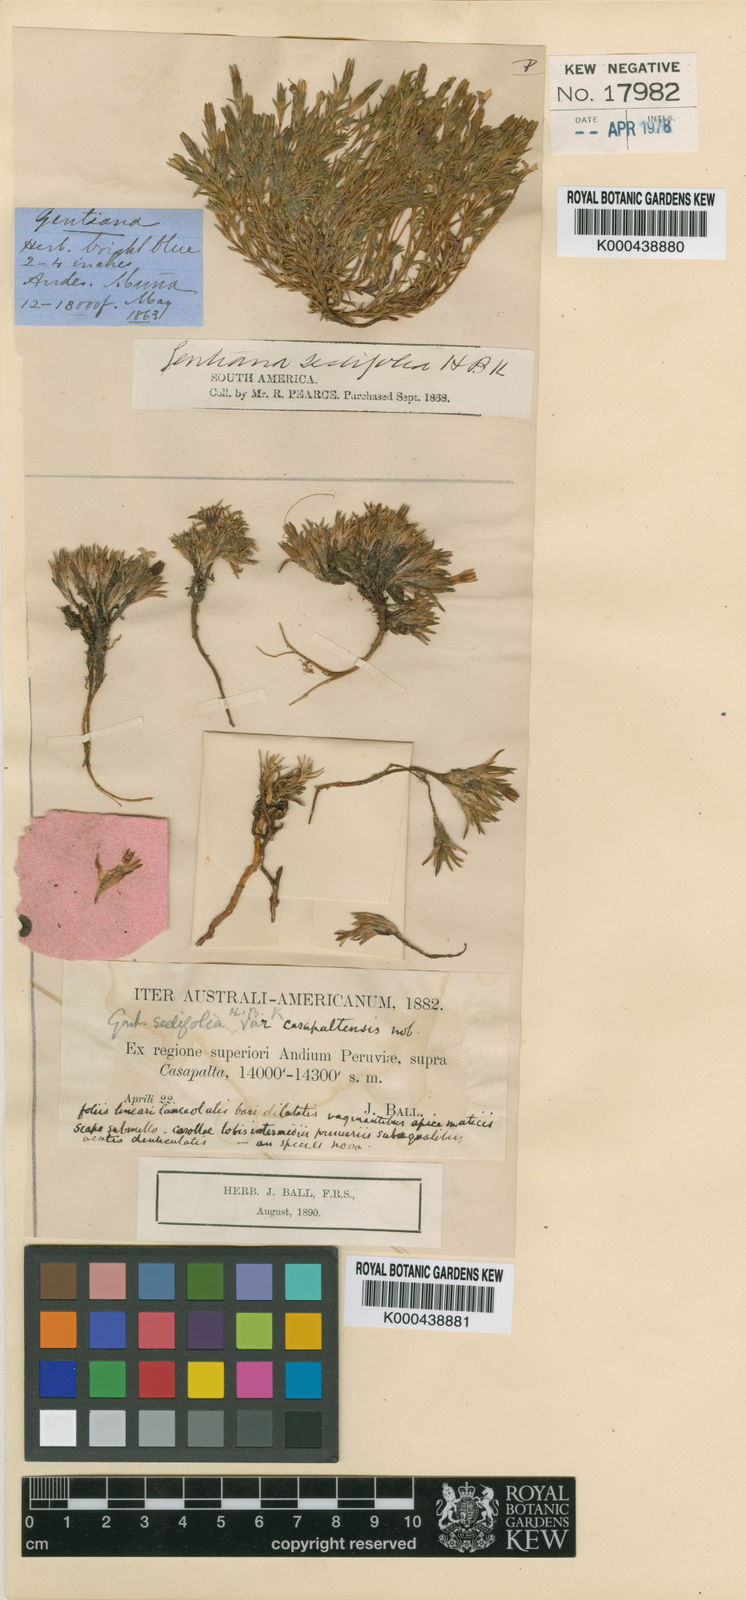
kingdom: Plantae
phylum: Tracheophyta
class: Magnoliopsida
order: Gentianales
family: Gentianaceae
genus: Gentiana
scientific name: Gentiana prostrata
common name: Moss gentian
